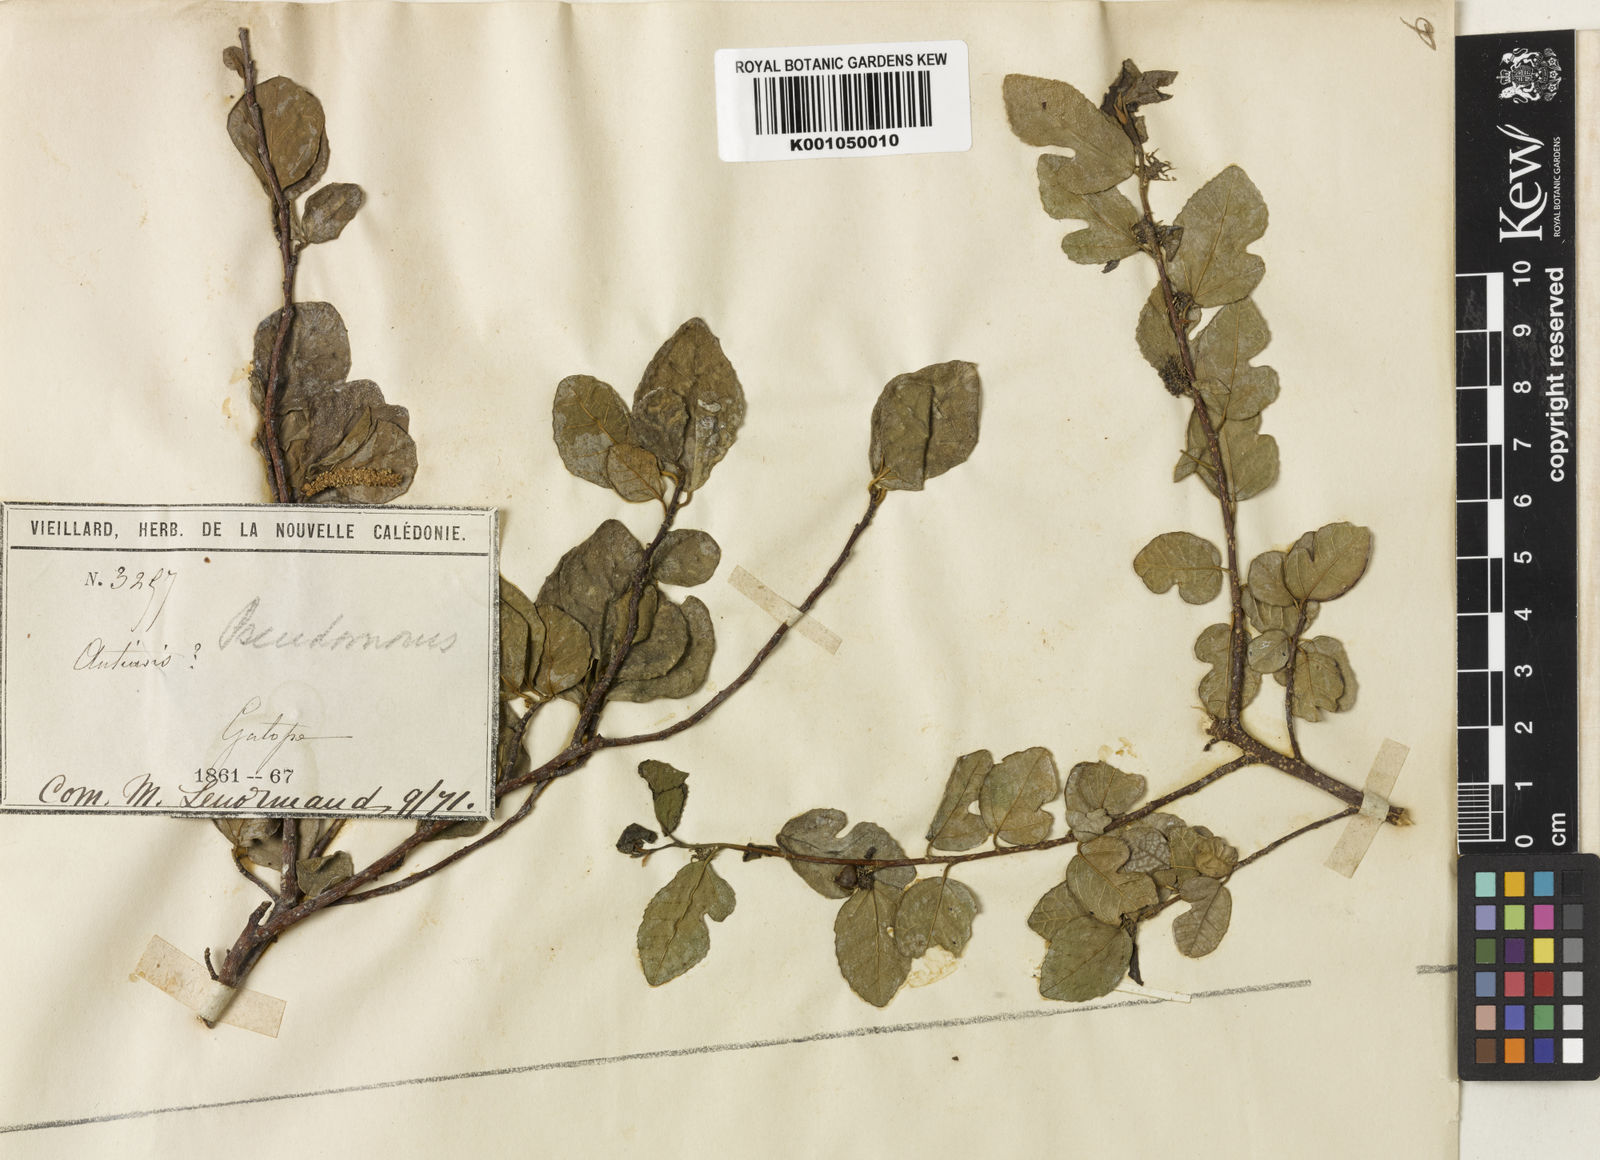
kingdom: Plantae
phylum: Tracheophyta
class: Magnoliopsida
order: Rosales
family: Moraceae
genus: Paratrophis
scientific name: Paratrophis pendulina
